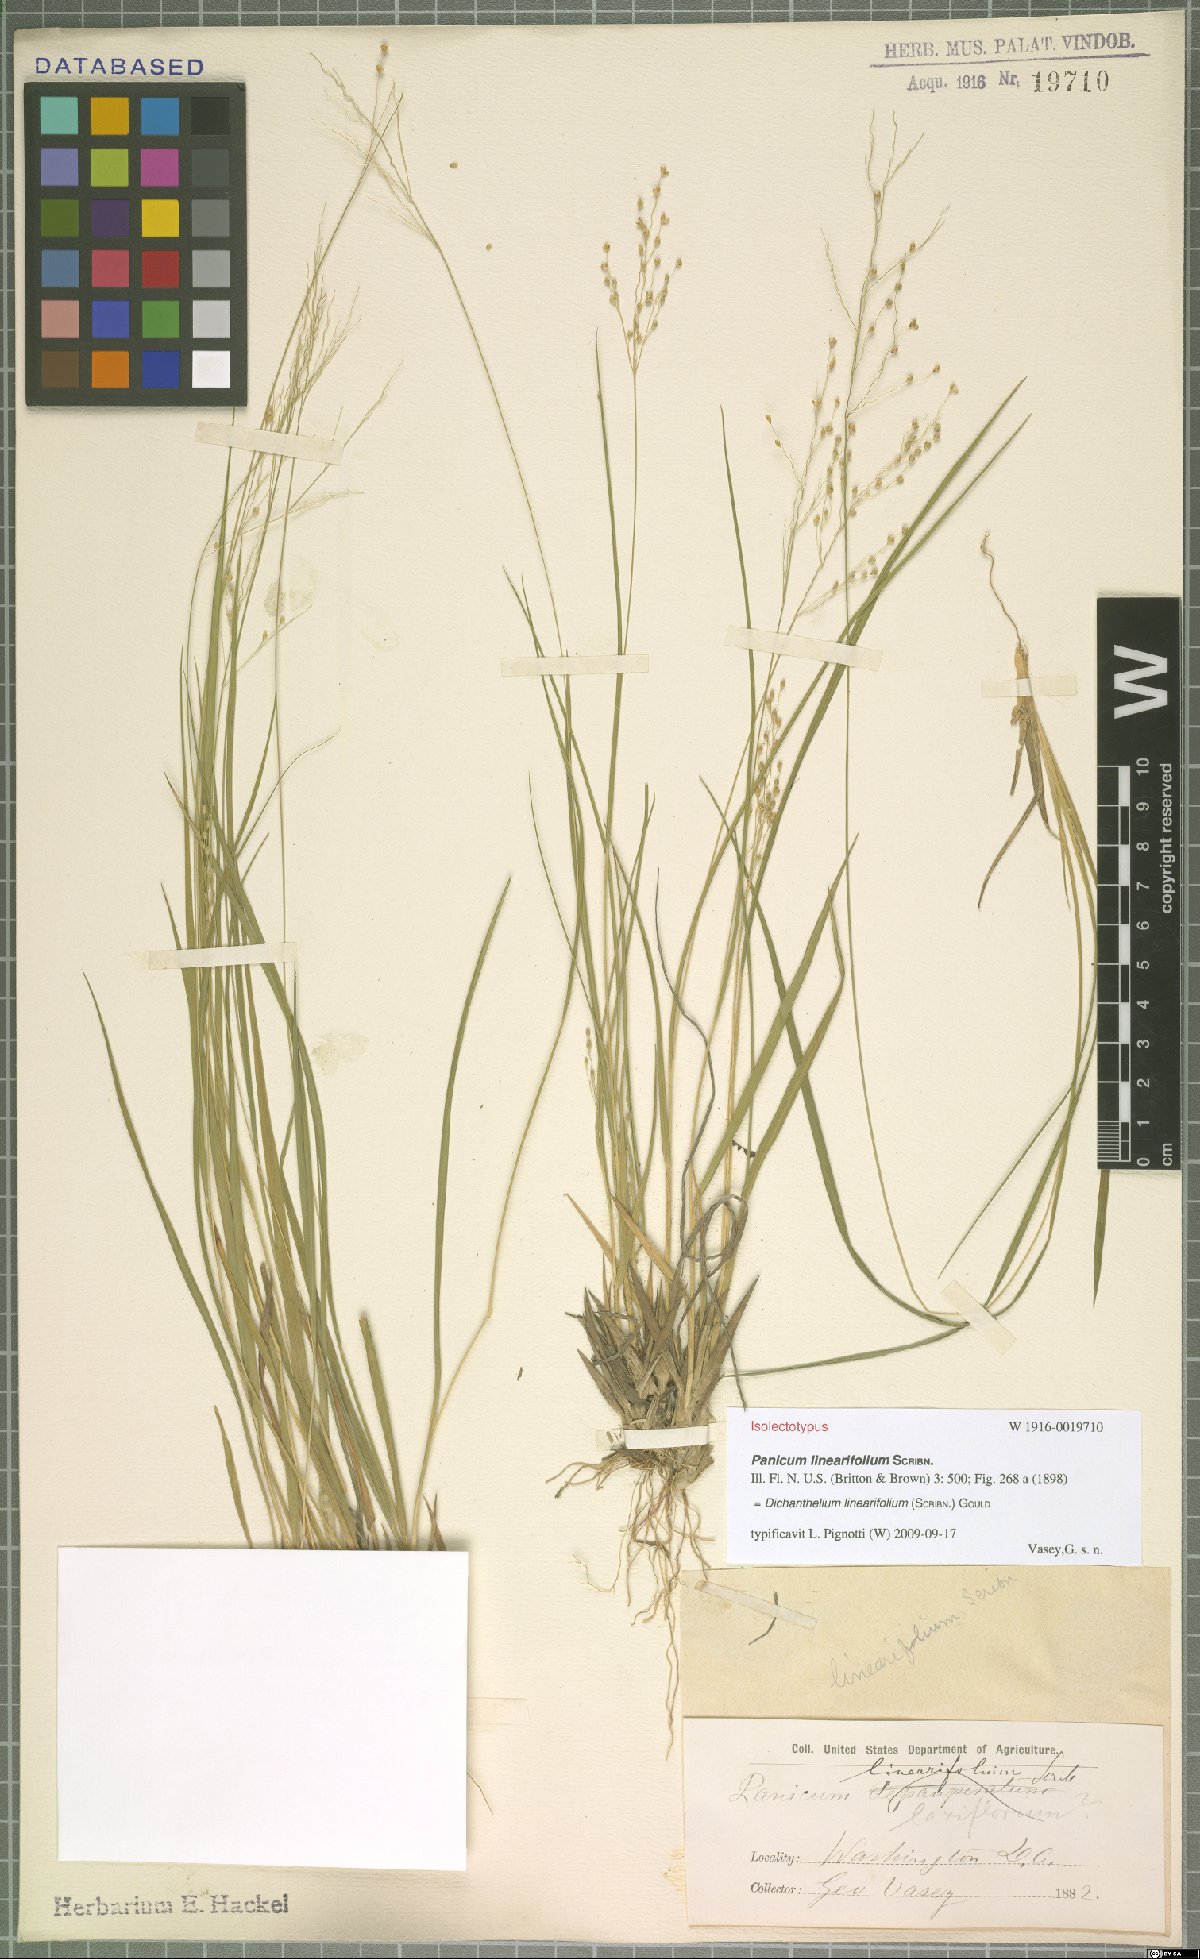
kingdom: Plantae
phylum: Tracheophyta
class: Liliopsida
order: Poales
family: Poaceae
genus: Dichanthelium
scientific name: Dichanthelium linearifolium
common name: Linear-leaved panicgrass
